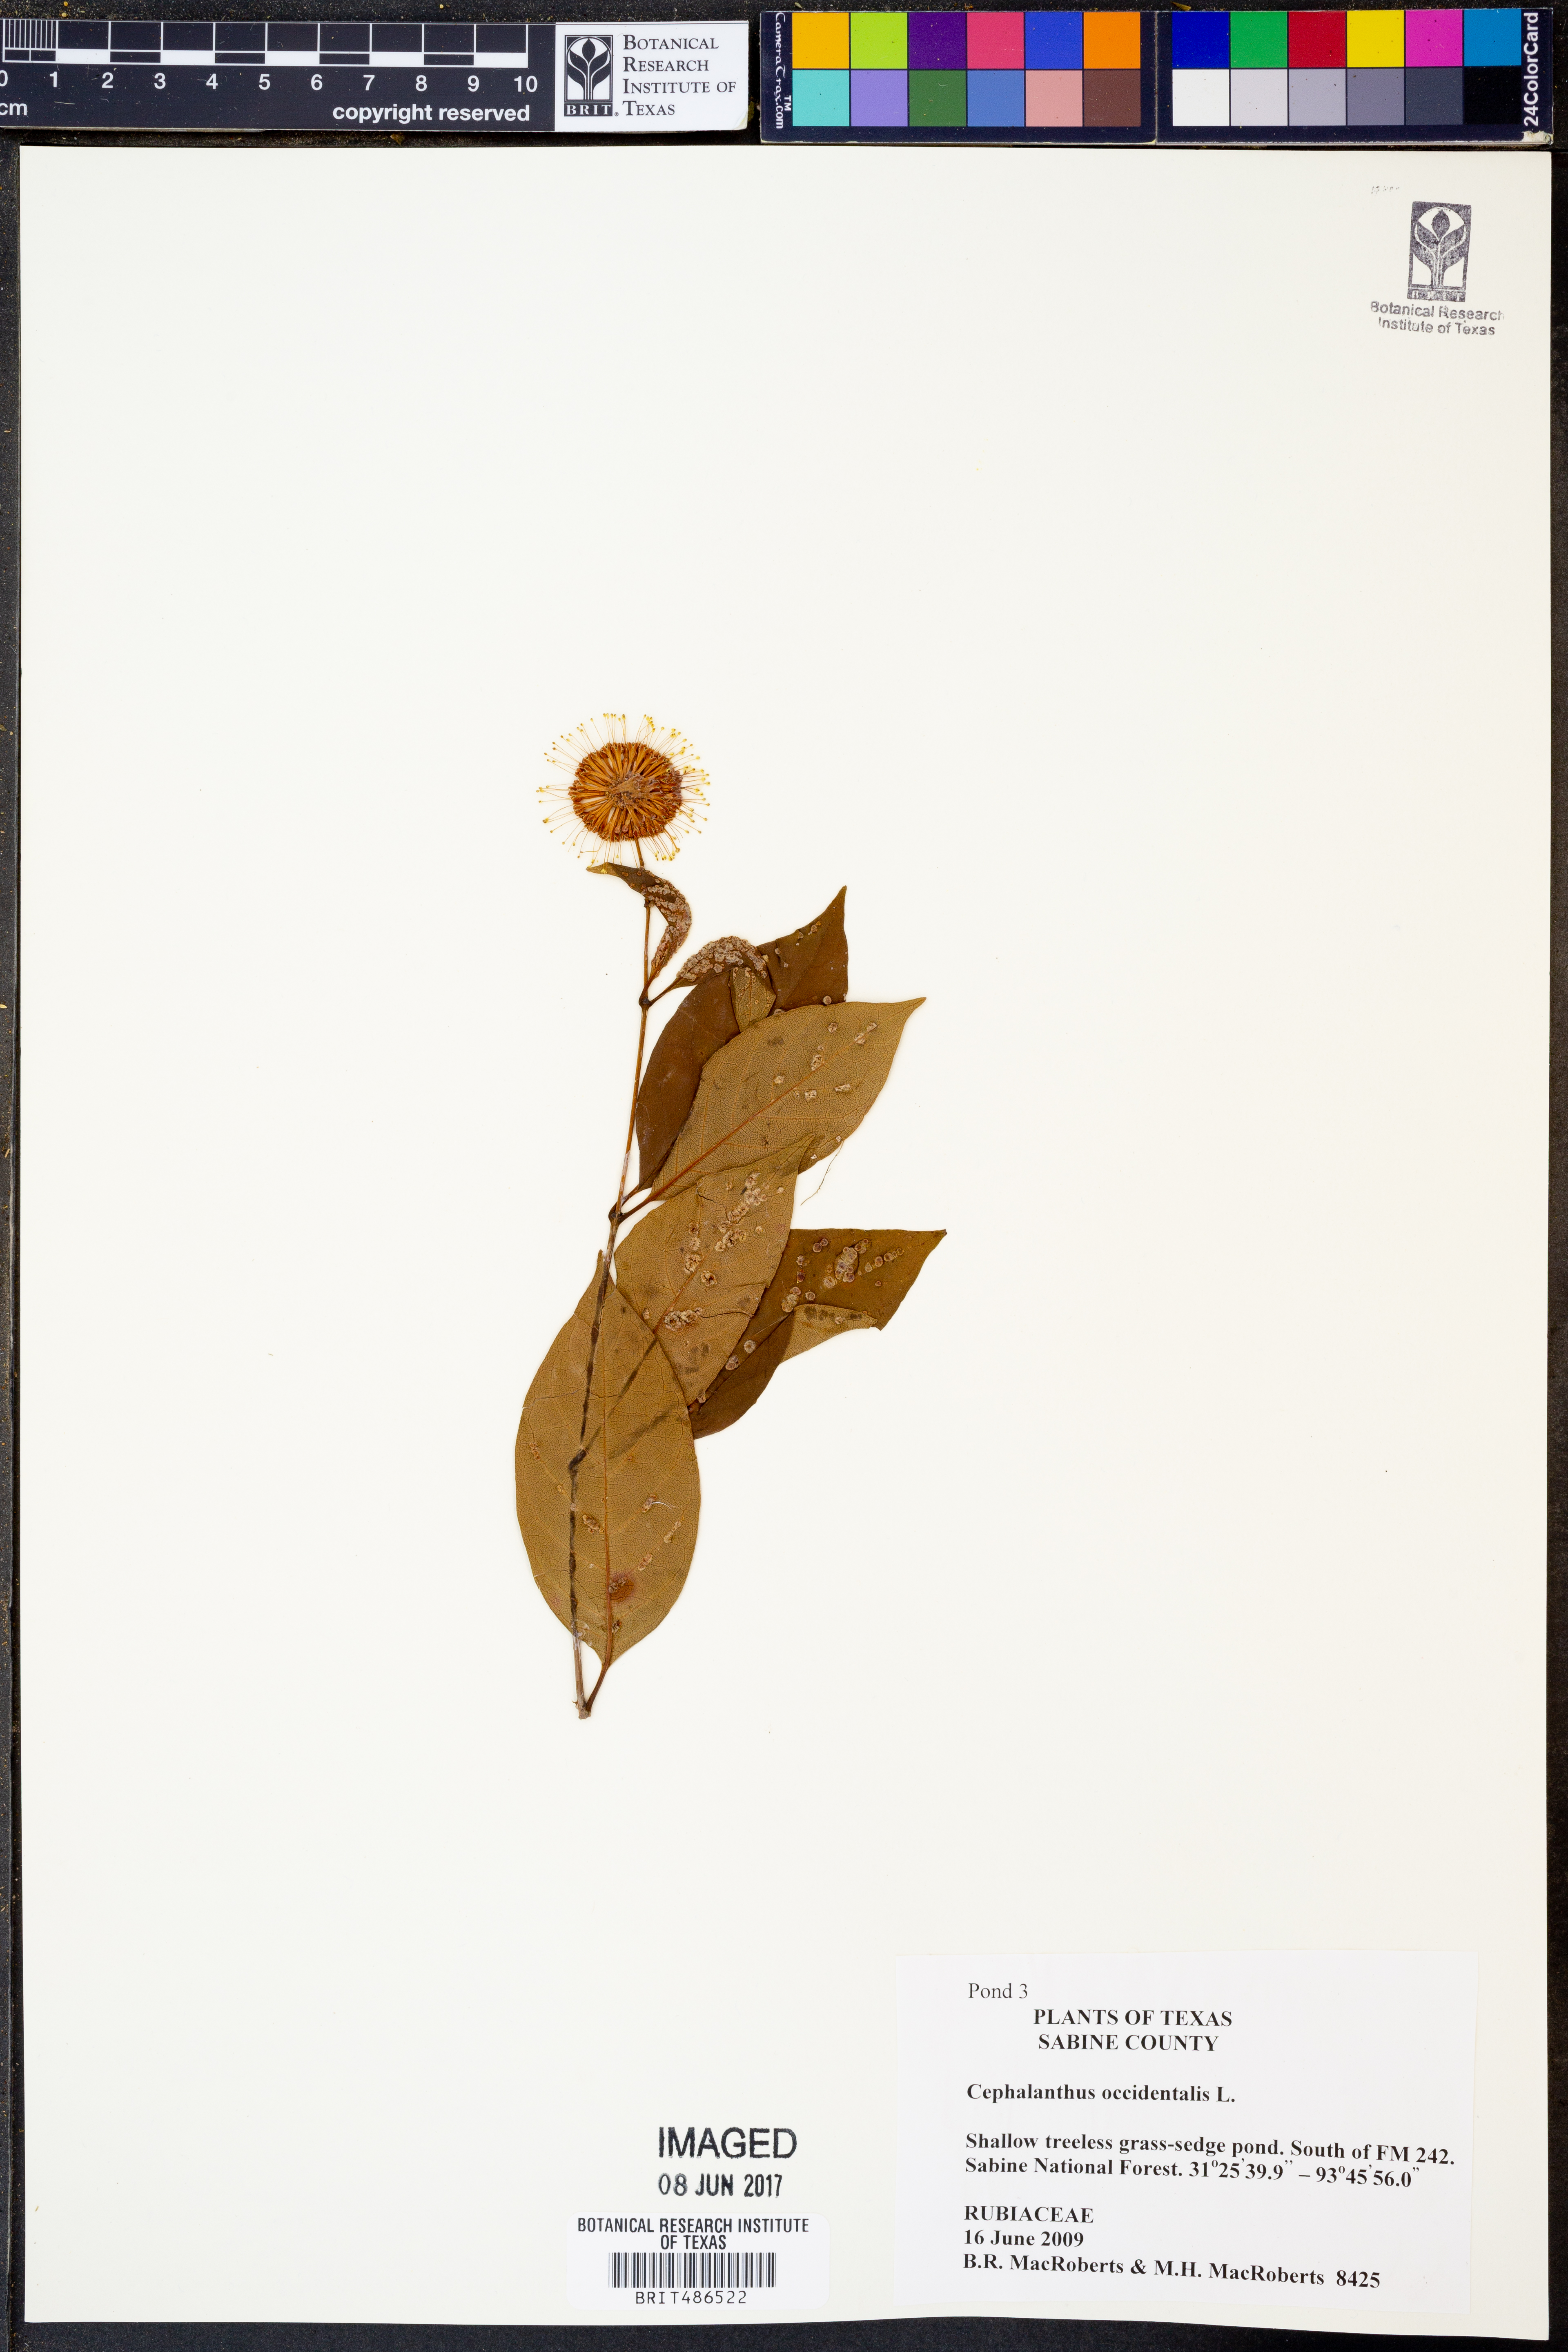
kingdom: Plantae
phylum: Tracheophyta
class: Magnoliopsida
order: Gentianales
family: Rubiaceae
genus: Cephalanthus
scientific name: Cephalanthus occidentalis
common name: Button-willow
